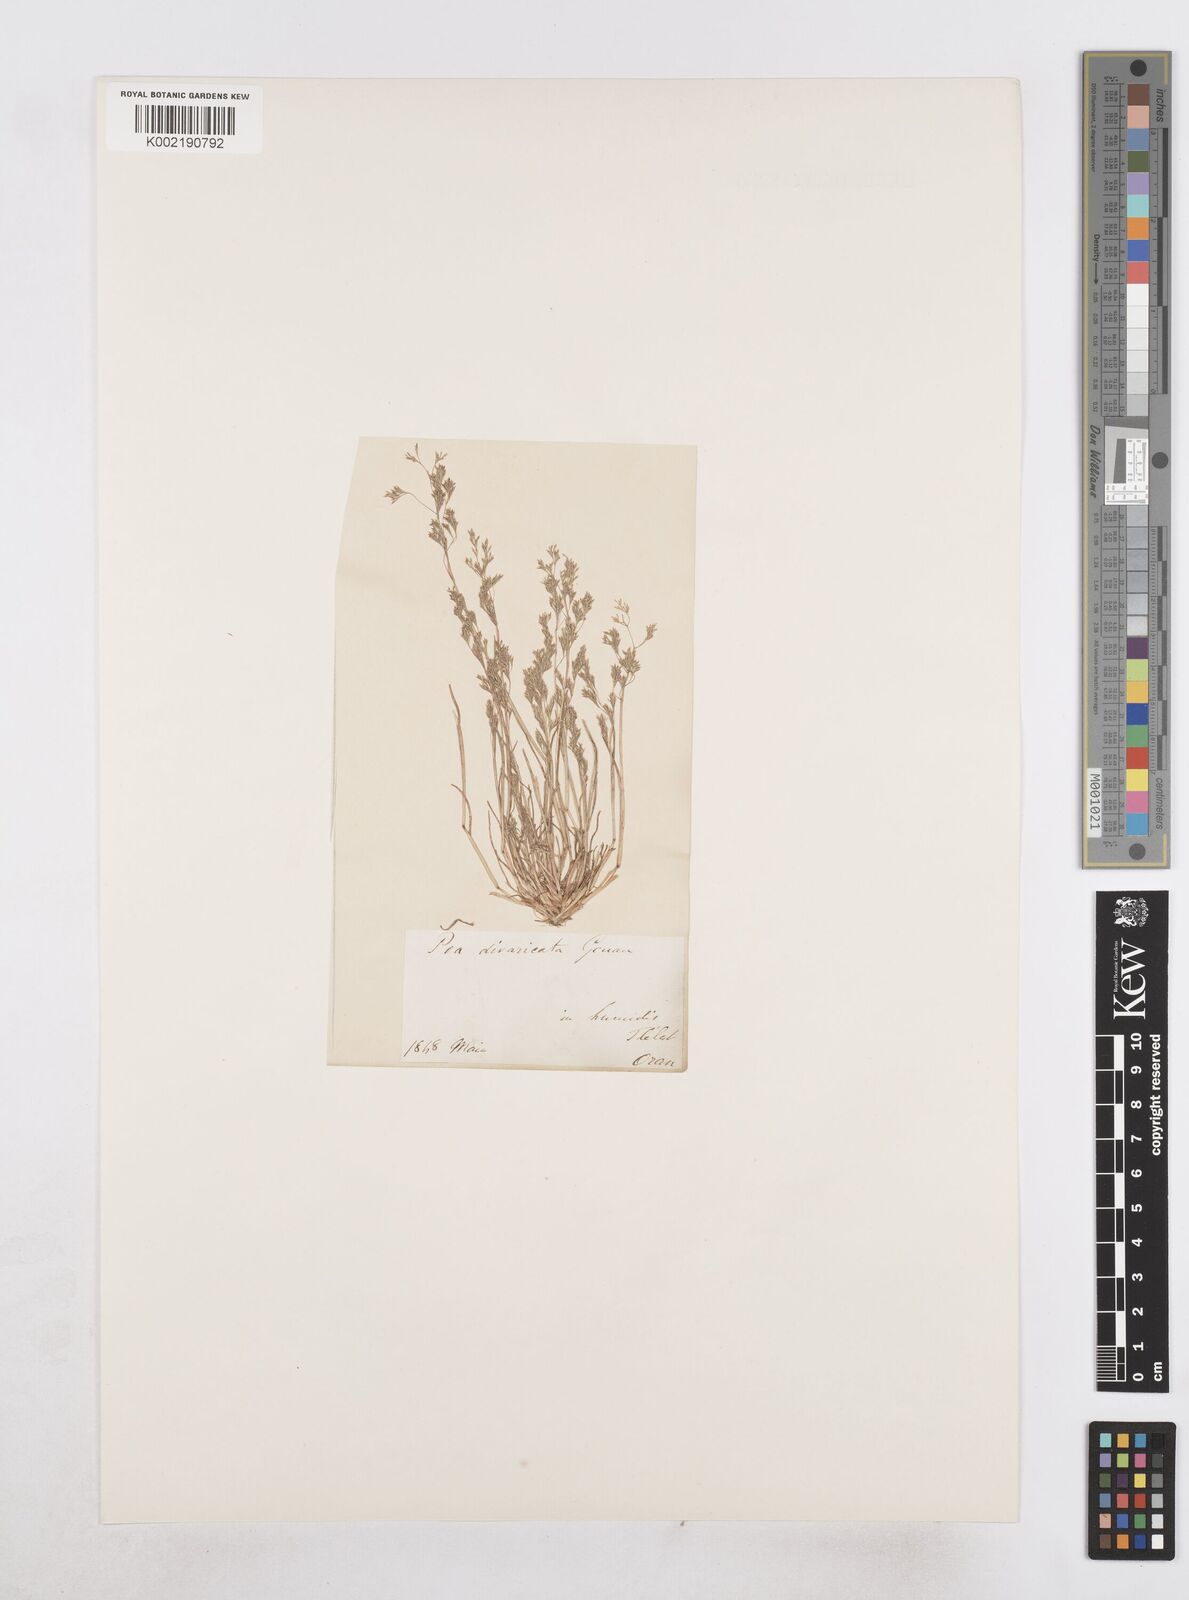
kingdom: Plantae
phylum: Tracheophyta
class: Liliopsida
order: Poales
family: Poaceae
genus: Sphenopus
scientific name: Sphenopus divaricatus
